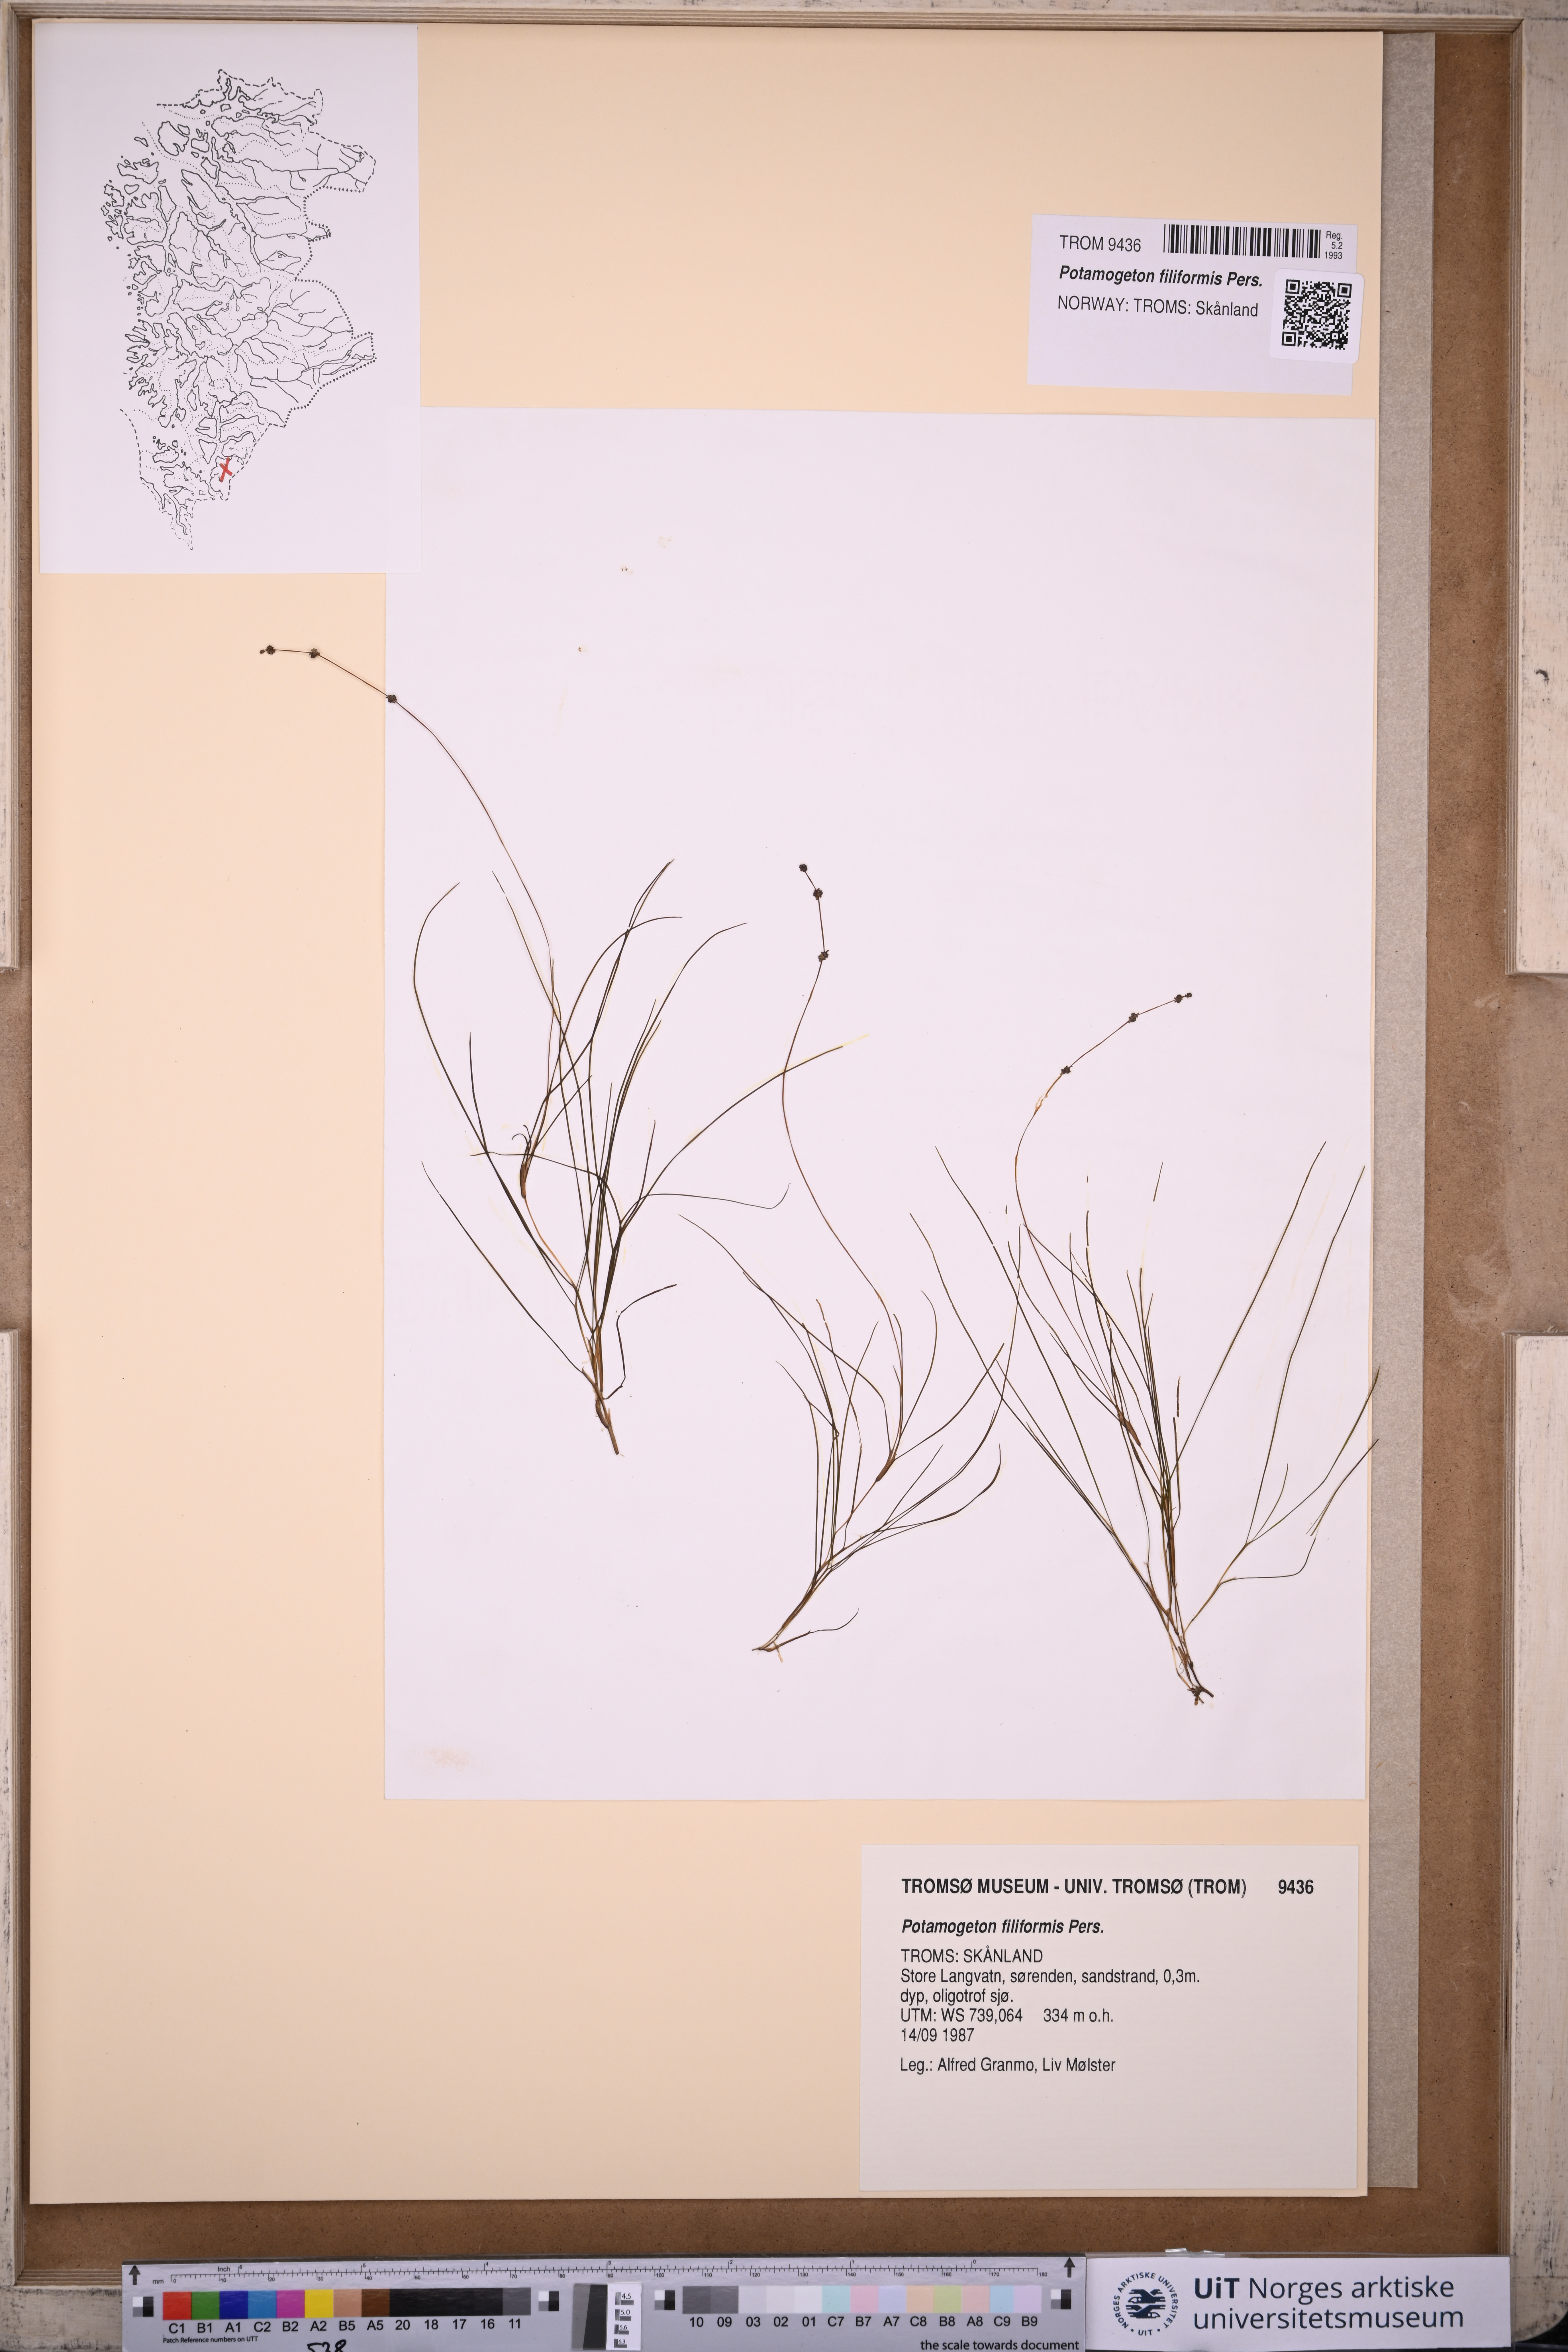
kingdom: Plantae
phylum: Tracheophyta
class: Liliopsida
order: Alismatales
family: Potamogetonaceae
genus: Stuckenia
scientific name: Stuckenia filiformis
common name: Alpine thread-leaved pondweed
